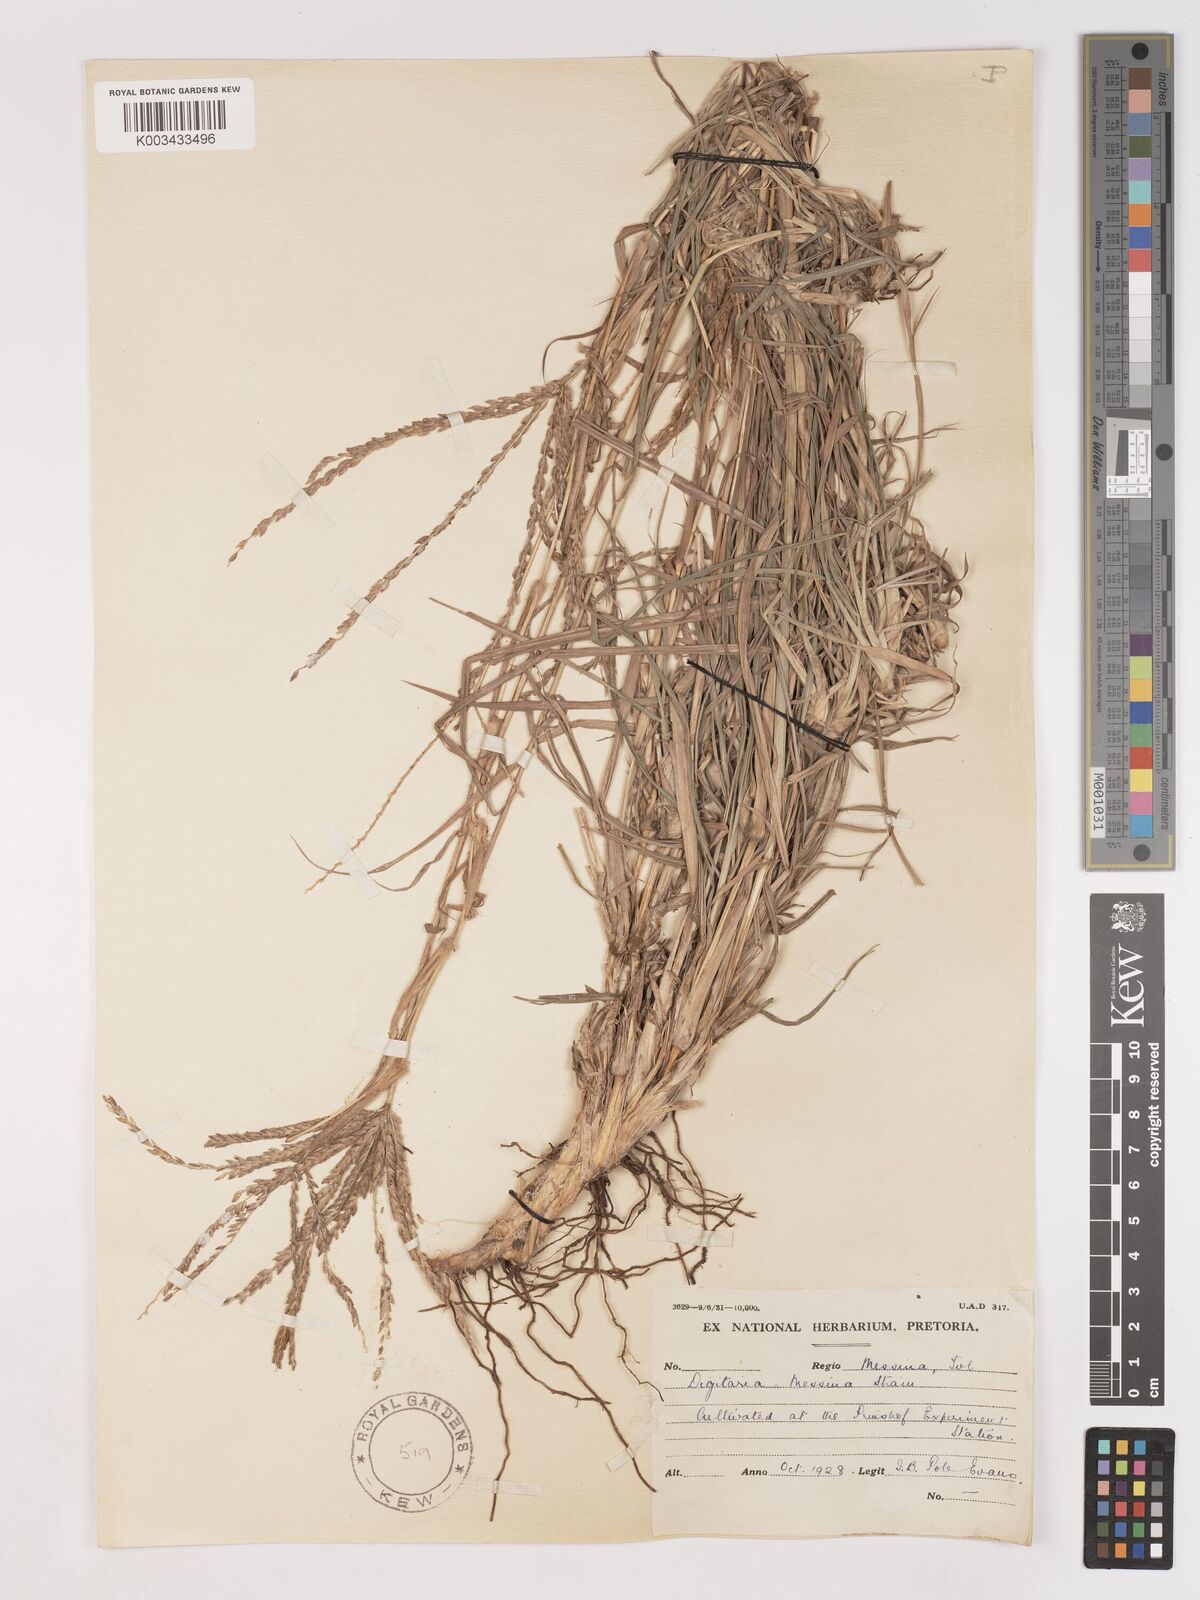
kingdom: Plantae
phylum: Tracheophyta
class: Liliopsida
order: Poales
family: Poaceae
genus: Digitaria
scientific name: Digitaria eriantha
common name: Digitgrass
